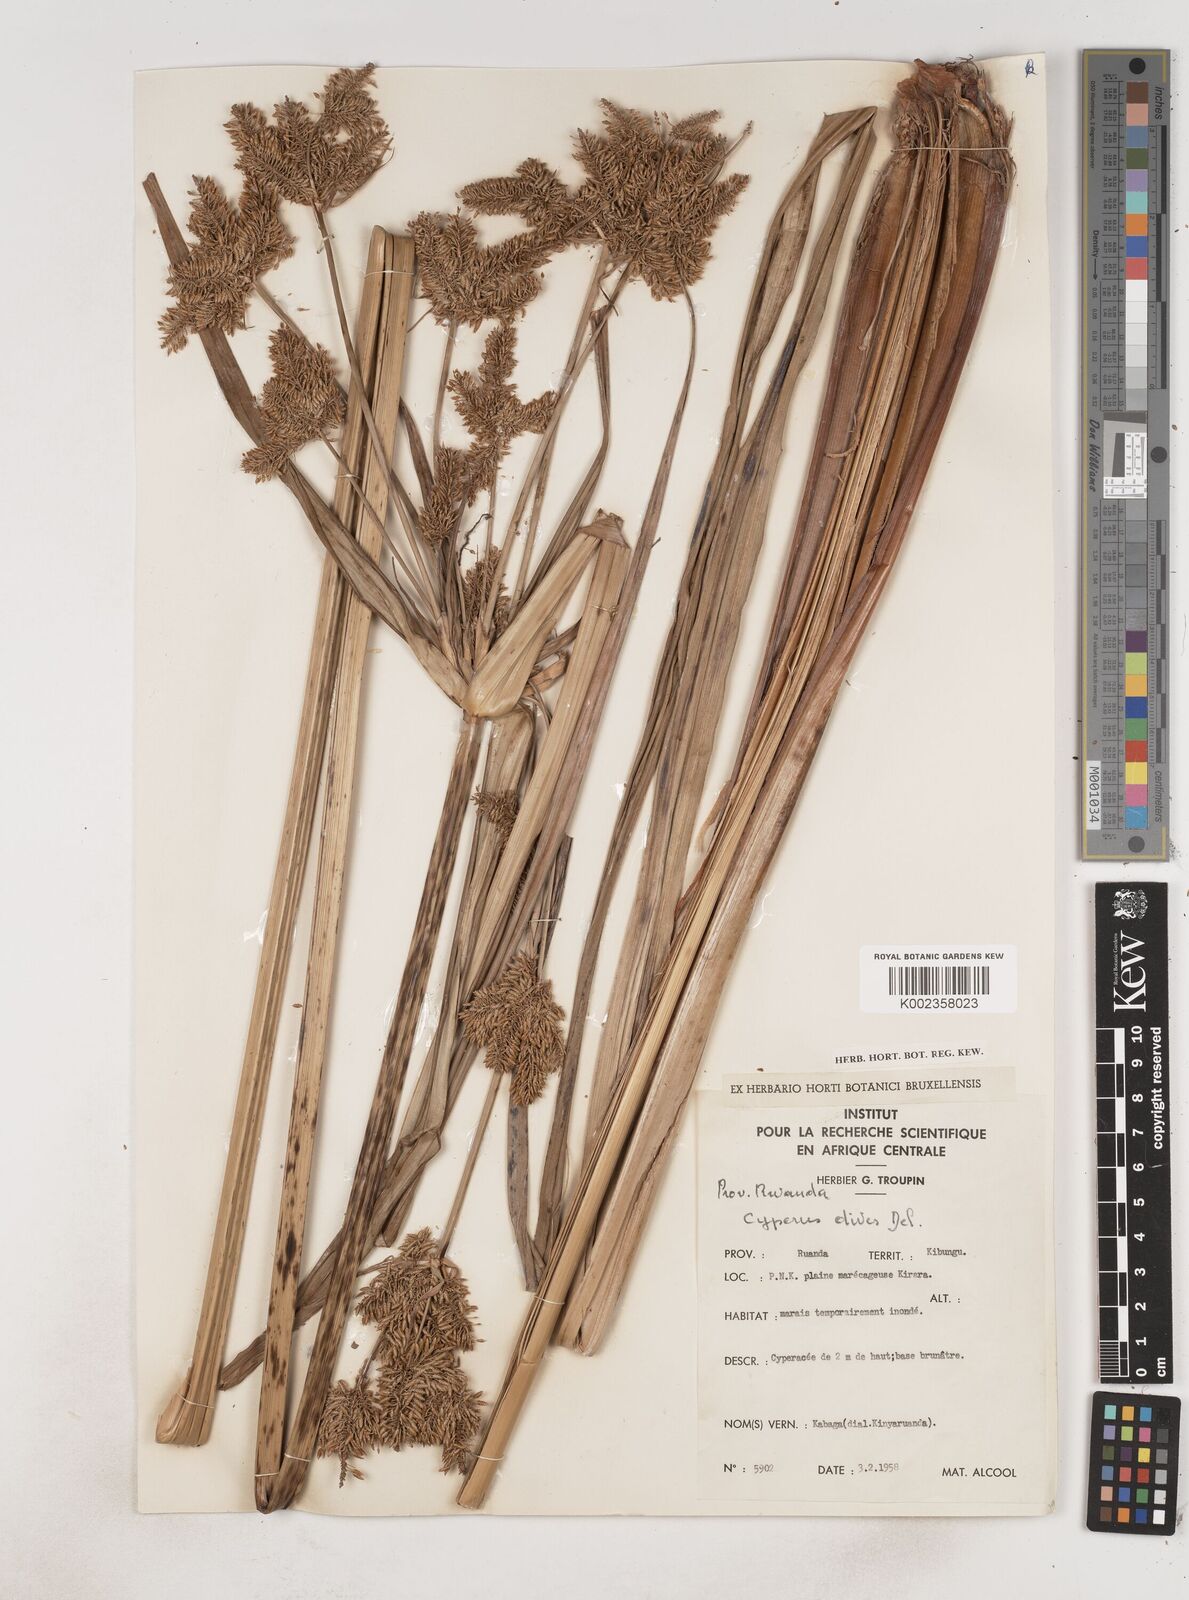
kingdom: Plantae
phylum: Tracheophyta
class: Liliopsida
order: Poales
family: Cyperaceae
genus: Cyperus
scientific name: Cyperus dives
